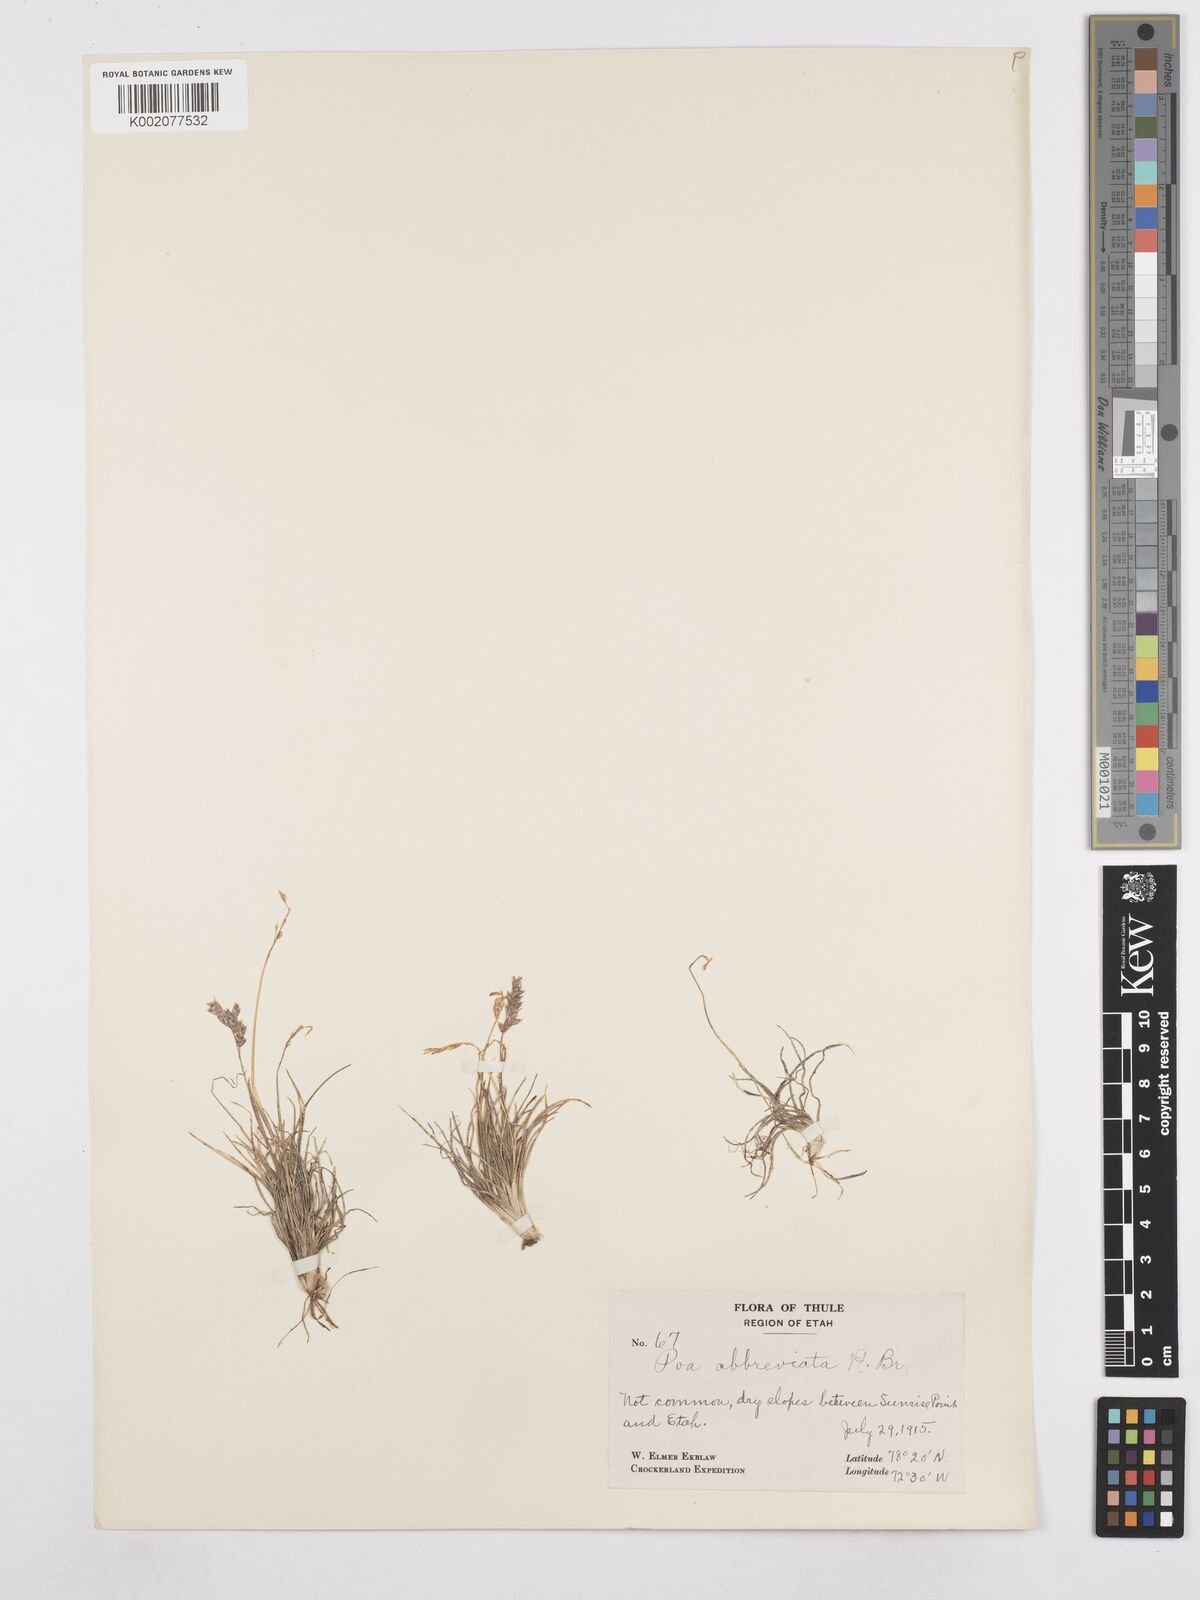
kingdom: Plantae
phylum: Tracheophyta
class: Liliopsida
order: Poales
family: Poaceae
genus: Poa
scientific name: Poa abbreviata
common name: Abbreviated bluegrass
